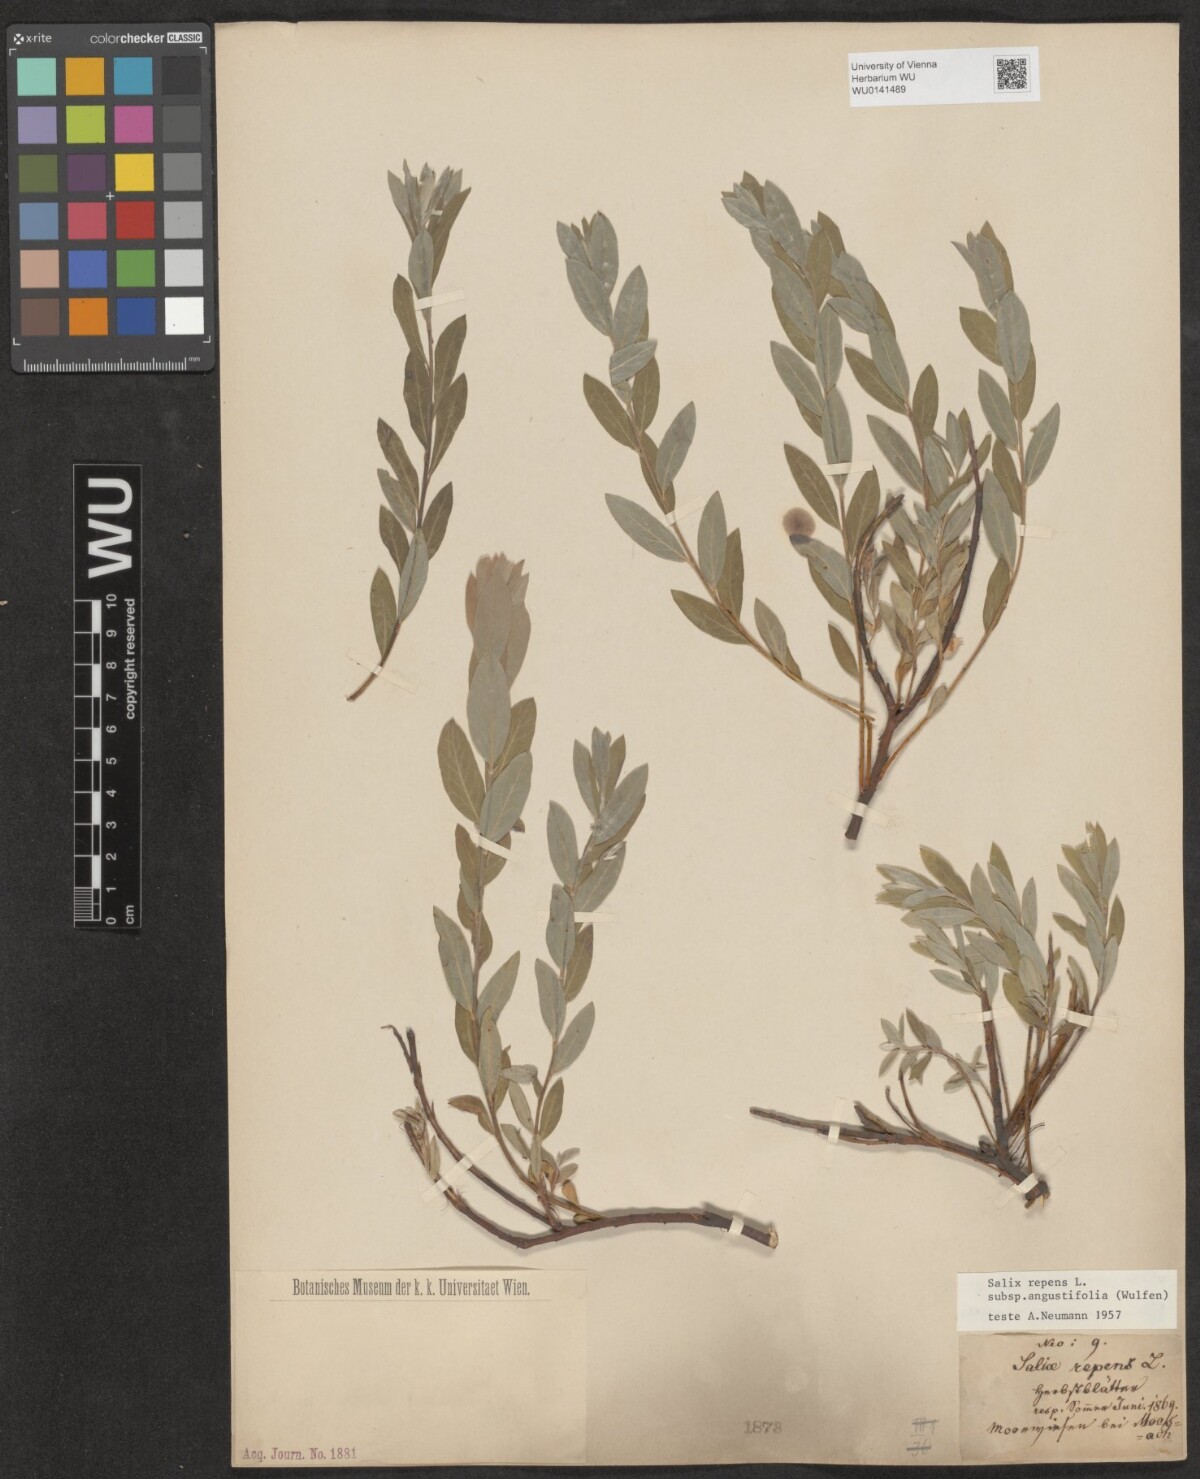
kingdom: Plantae
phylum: Tracheophyta
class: Magnoliopsida
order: Malpighiales
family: Salicaceae
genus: Salix
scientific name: Salix rosmarinifolia
